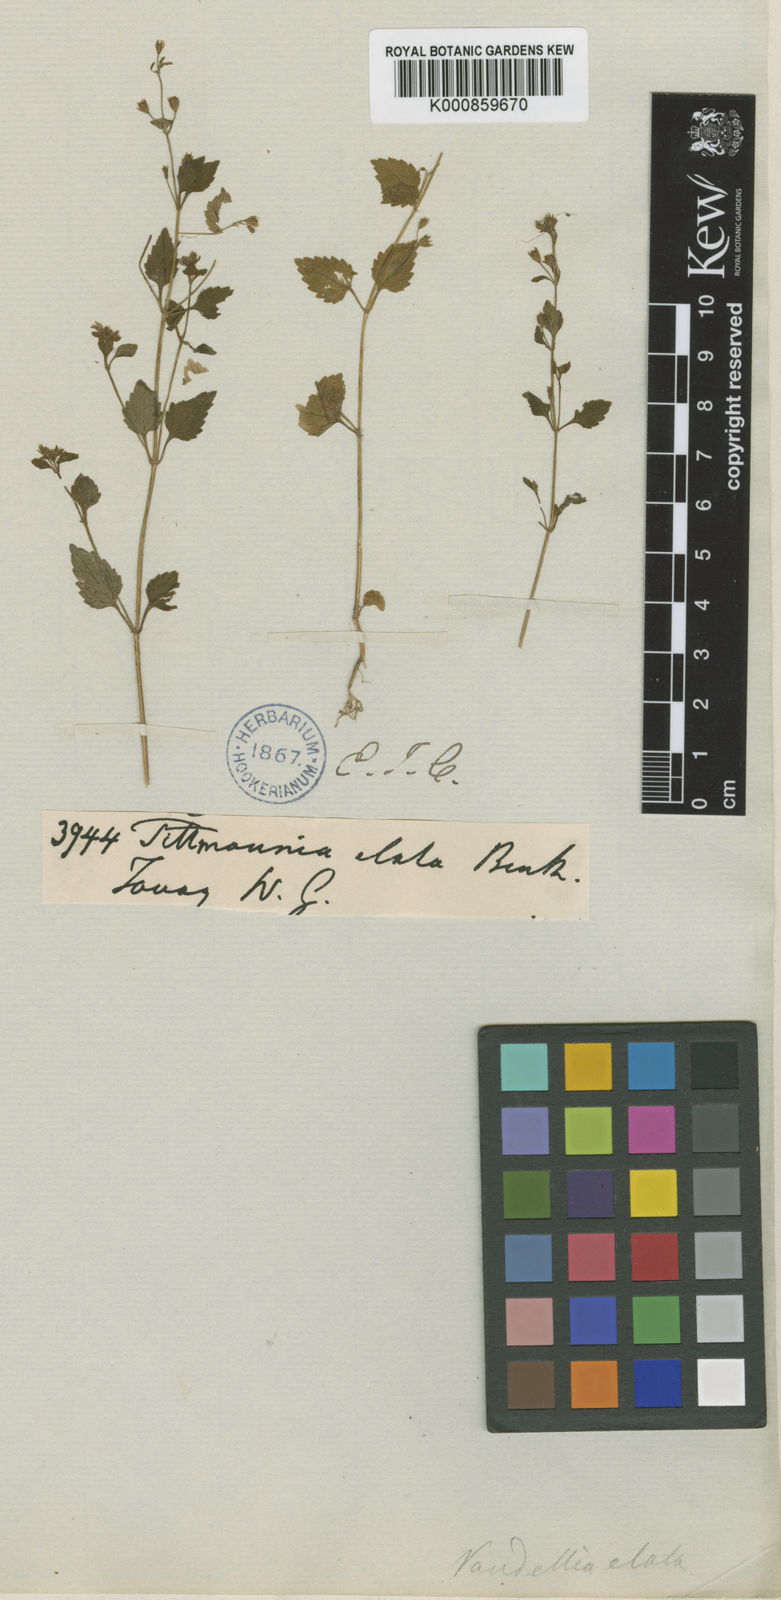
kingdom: Plantae
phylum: Tracheophyta
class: Magnoliopsida
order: Lamiales
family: Linderniaceae
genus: Vandellia
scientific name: Vandellia elata
